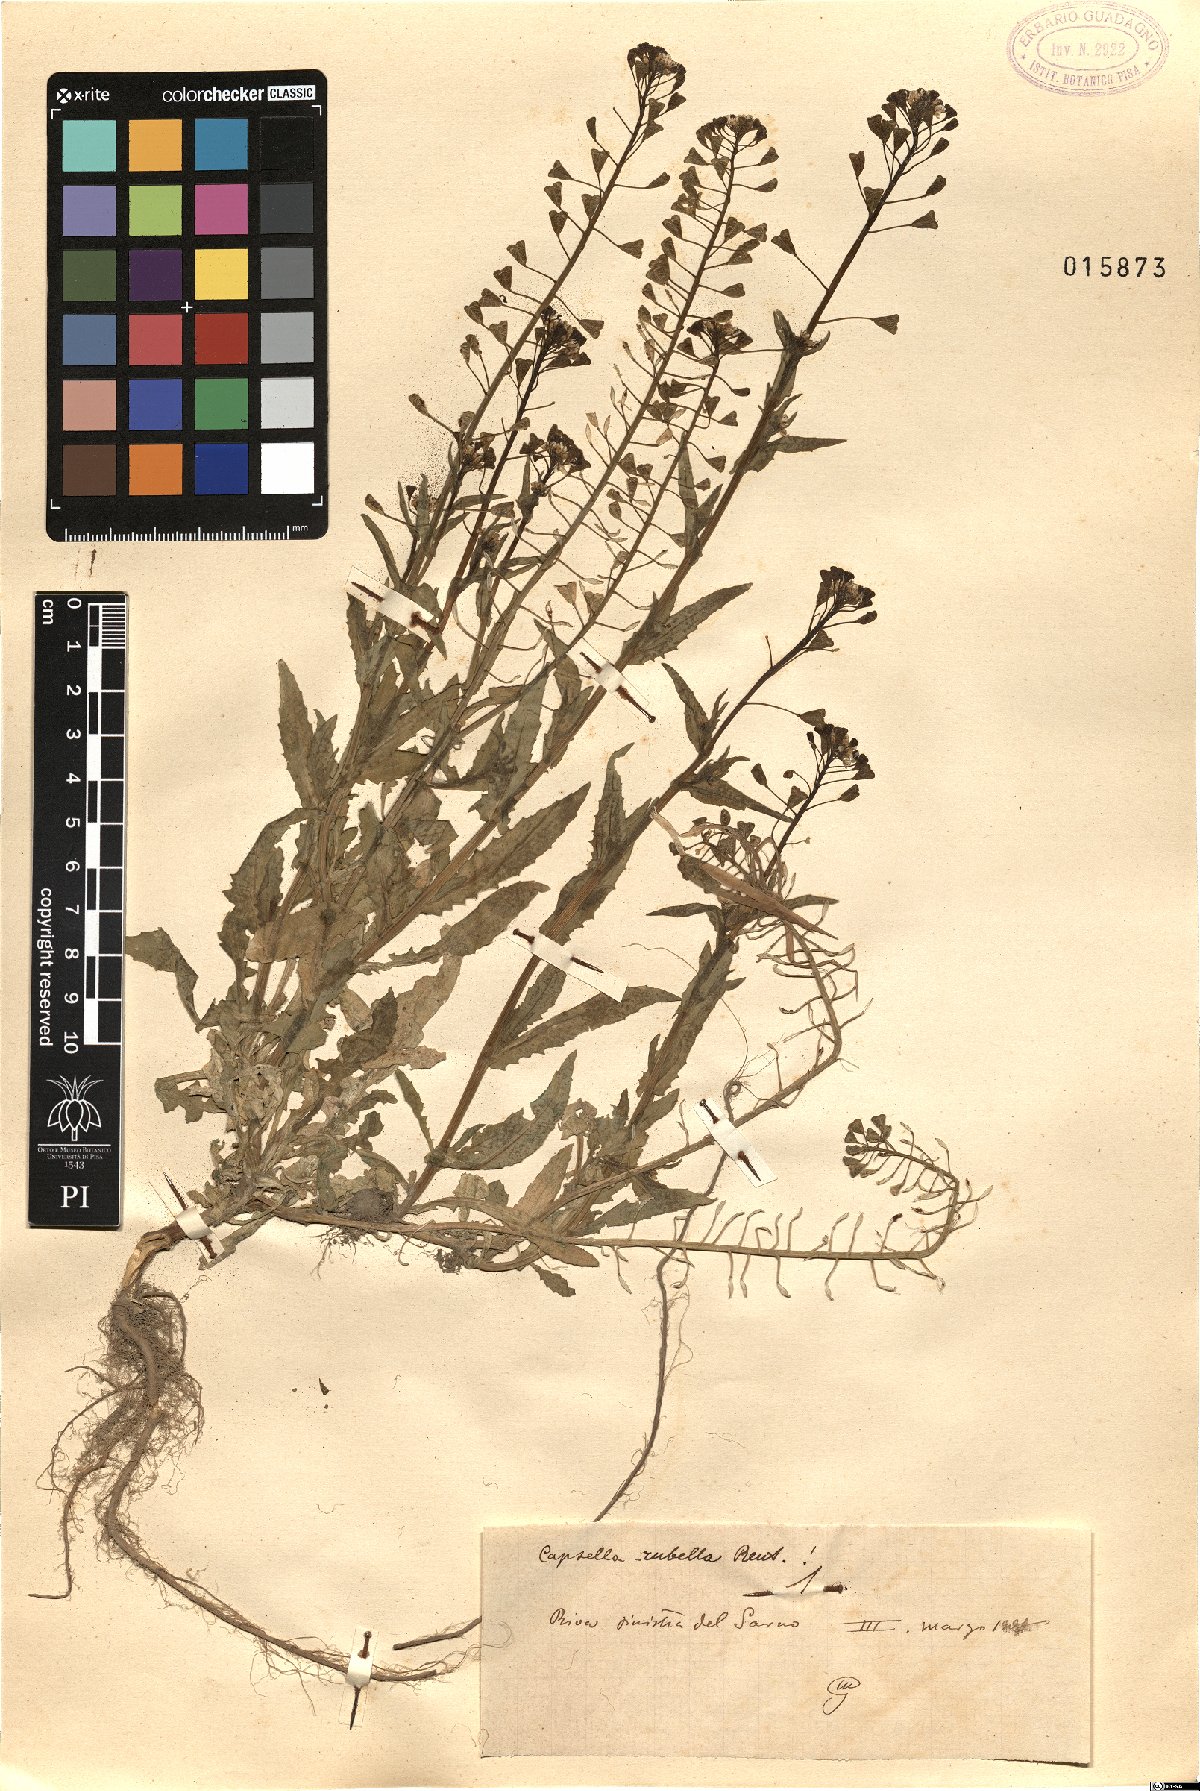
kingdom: Plantae
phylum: Tracheophyta
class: Magnoliopsida
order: Brassicales
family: Brassicaceae
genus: Capsella
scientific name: Capsella rubella
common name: Pink shepherd's-purse
